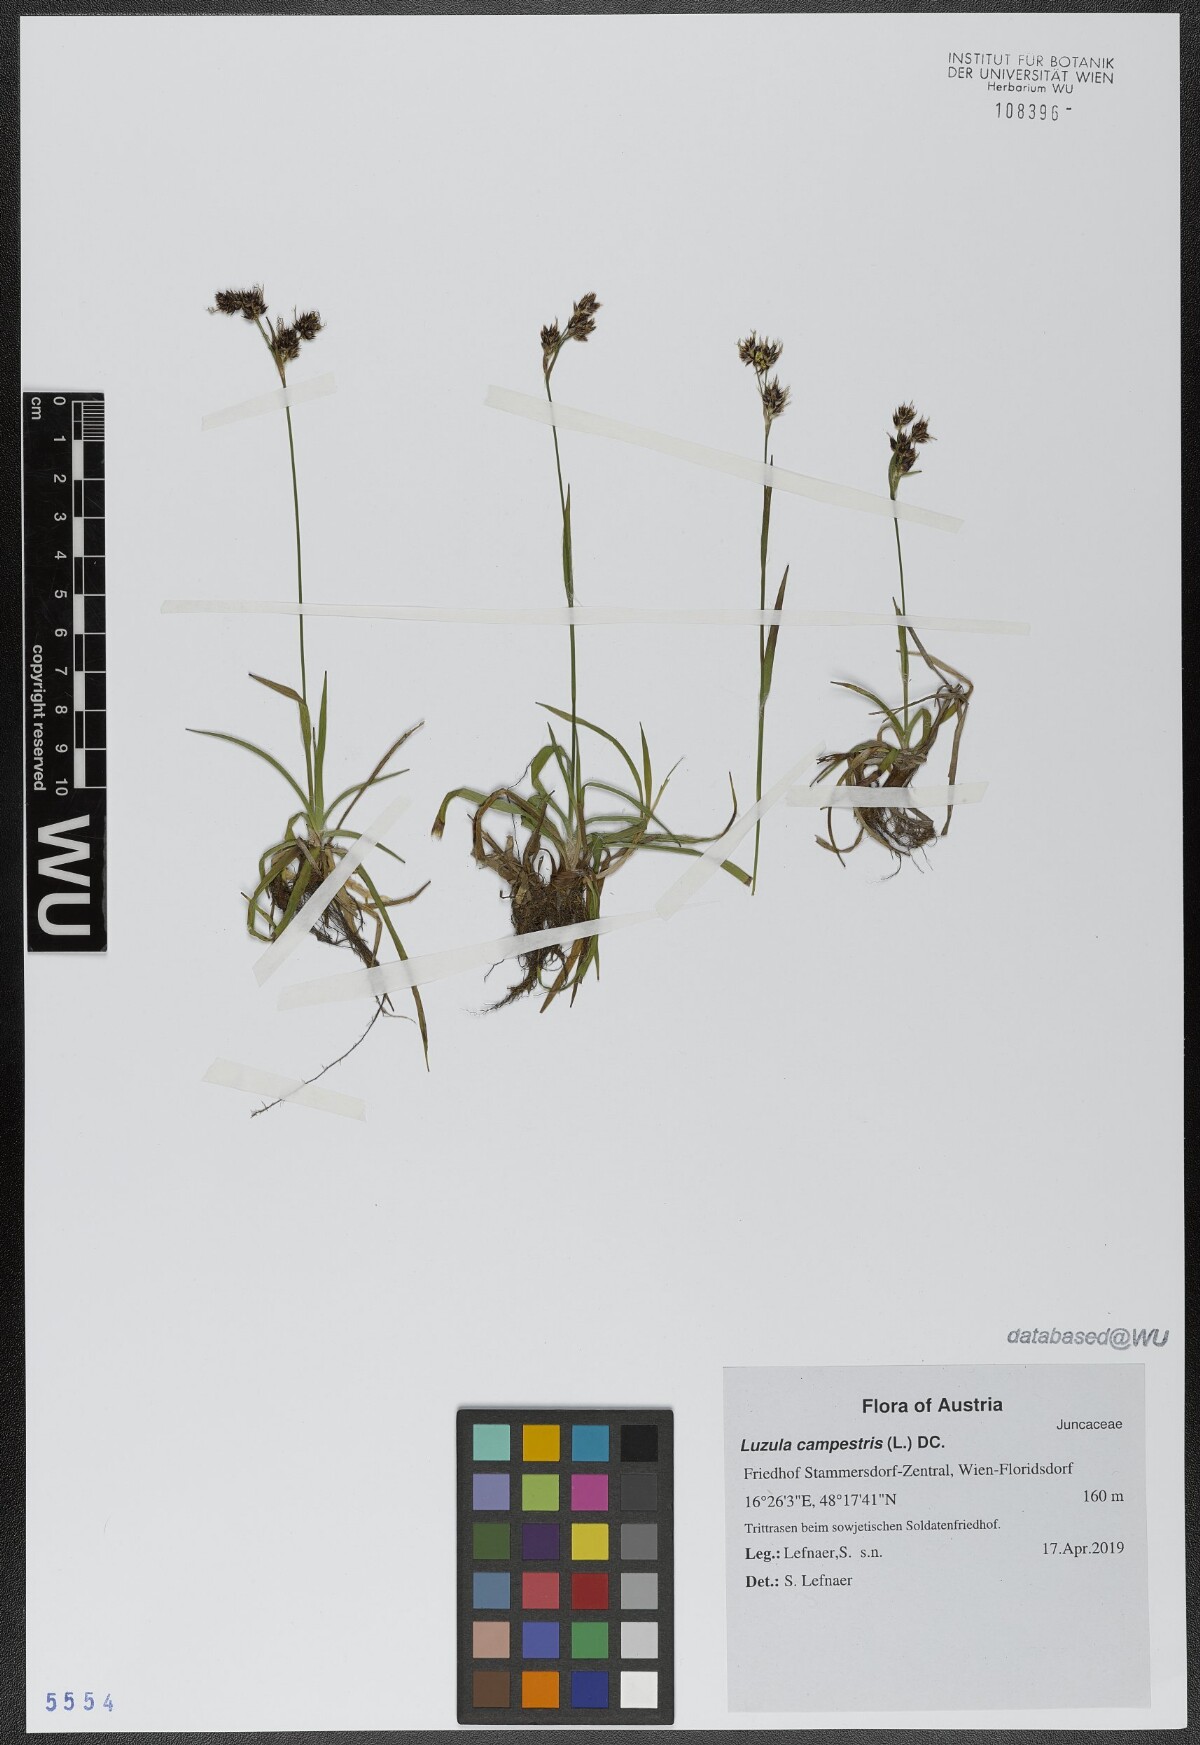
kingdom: Plantae
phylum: Tracheophyta
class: Liliopsida
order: Poales
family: Juncaceae
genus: Luzula
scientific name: Luzula campestris
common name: Field wood-rush
